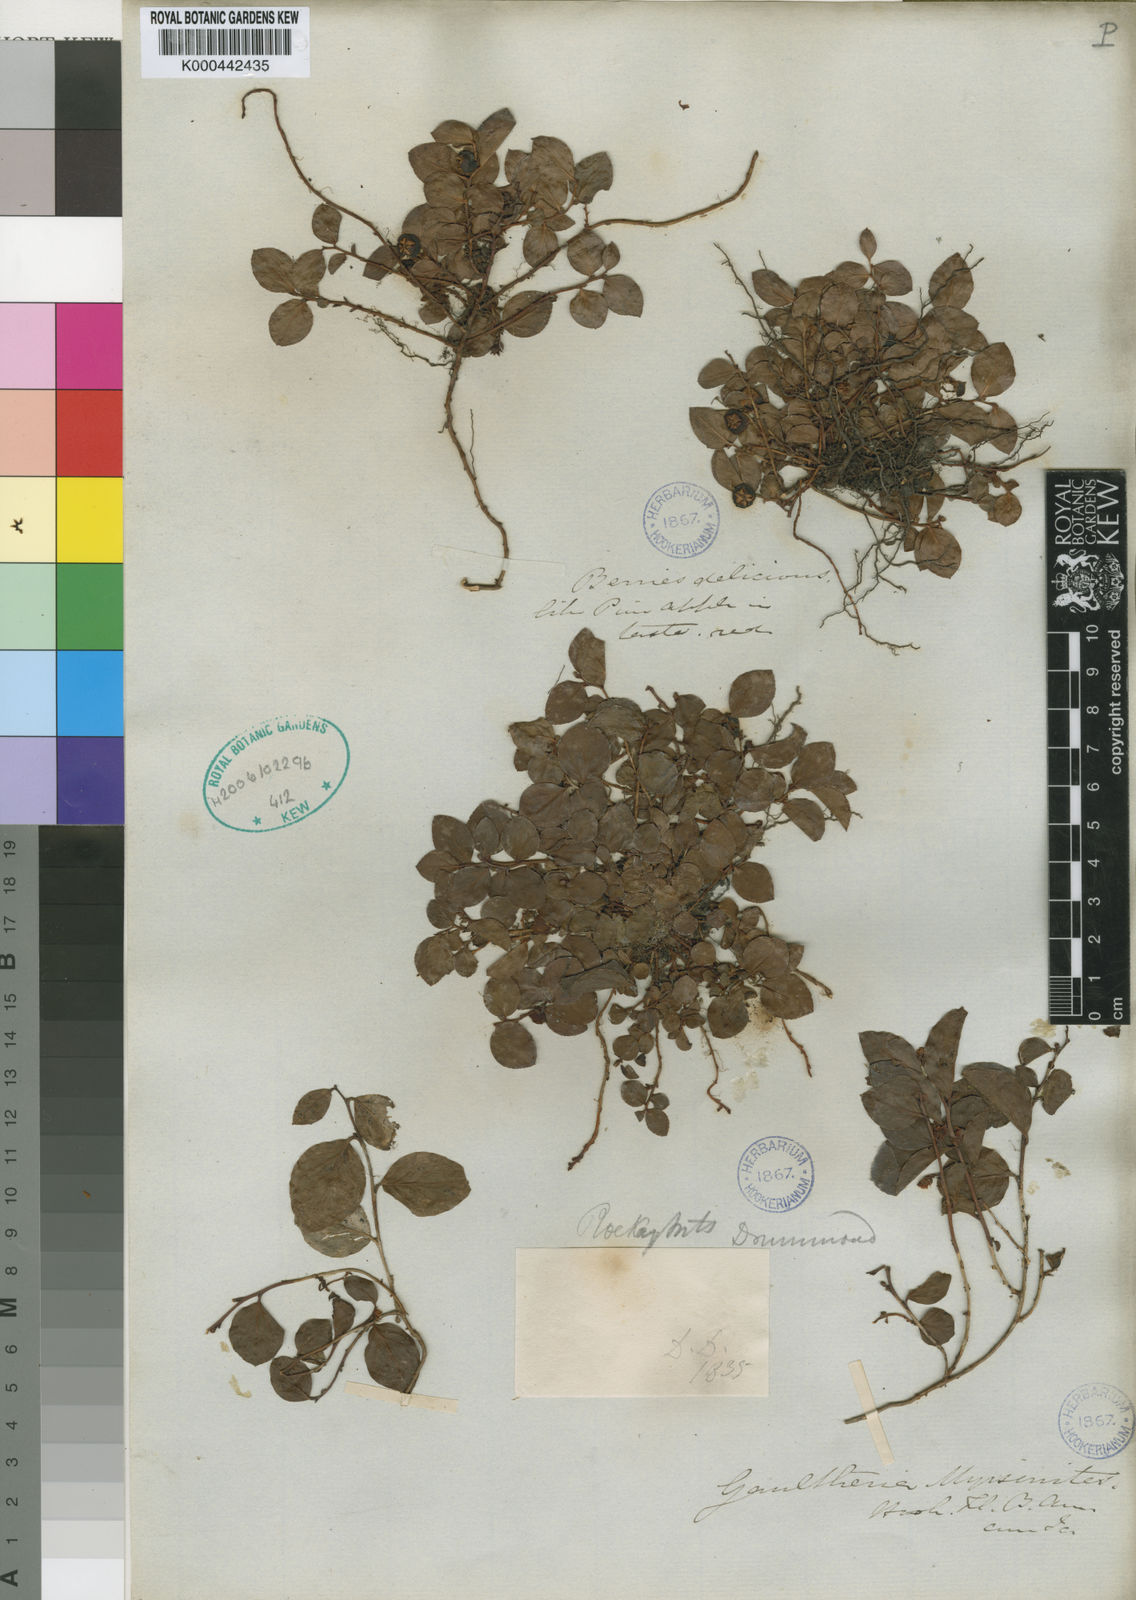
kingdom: Plantae
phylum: Tracheophyta
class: Magnoliopsida
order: Ericales
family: Ericaceae
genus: Gaultheria
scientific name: Gaultheria humifusa
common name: Alpine wintergreen
